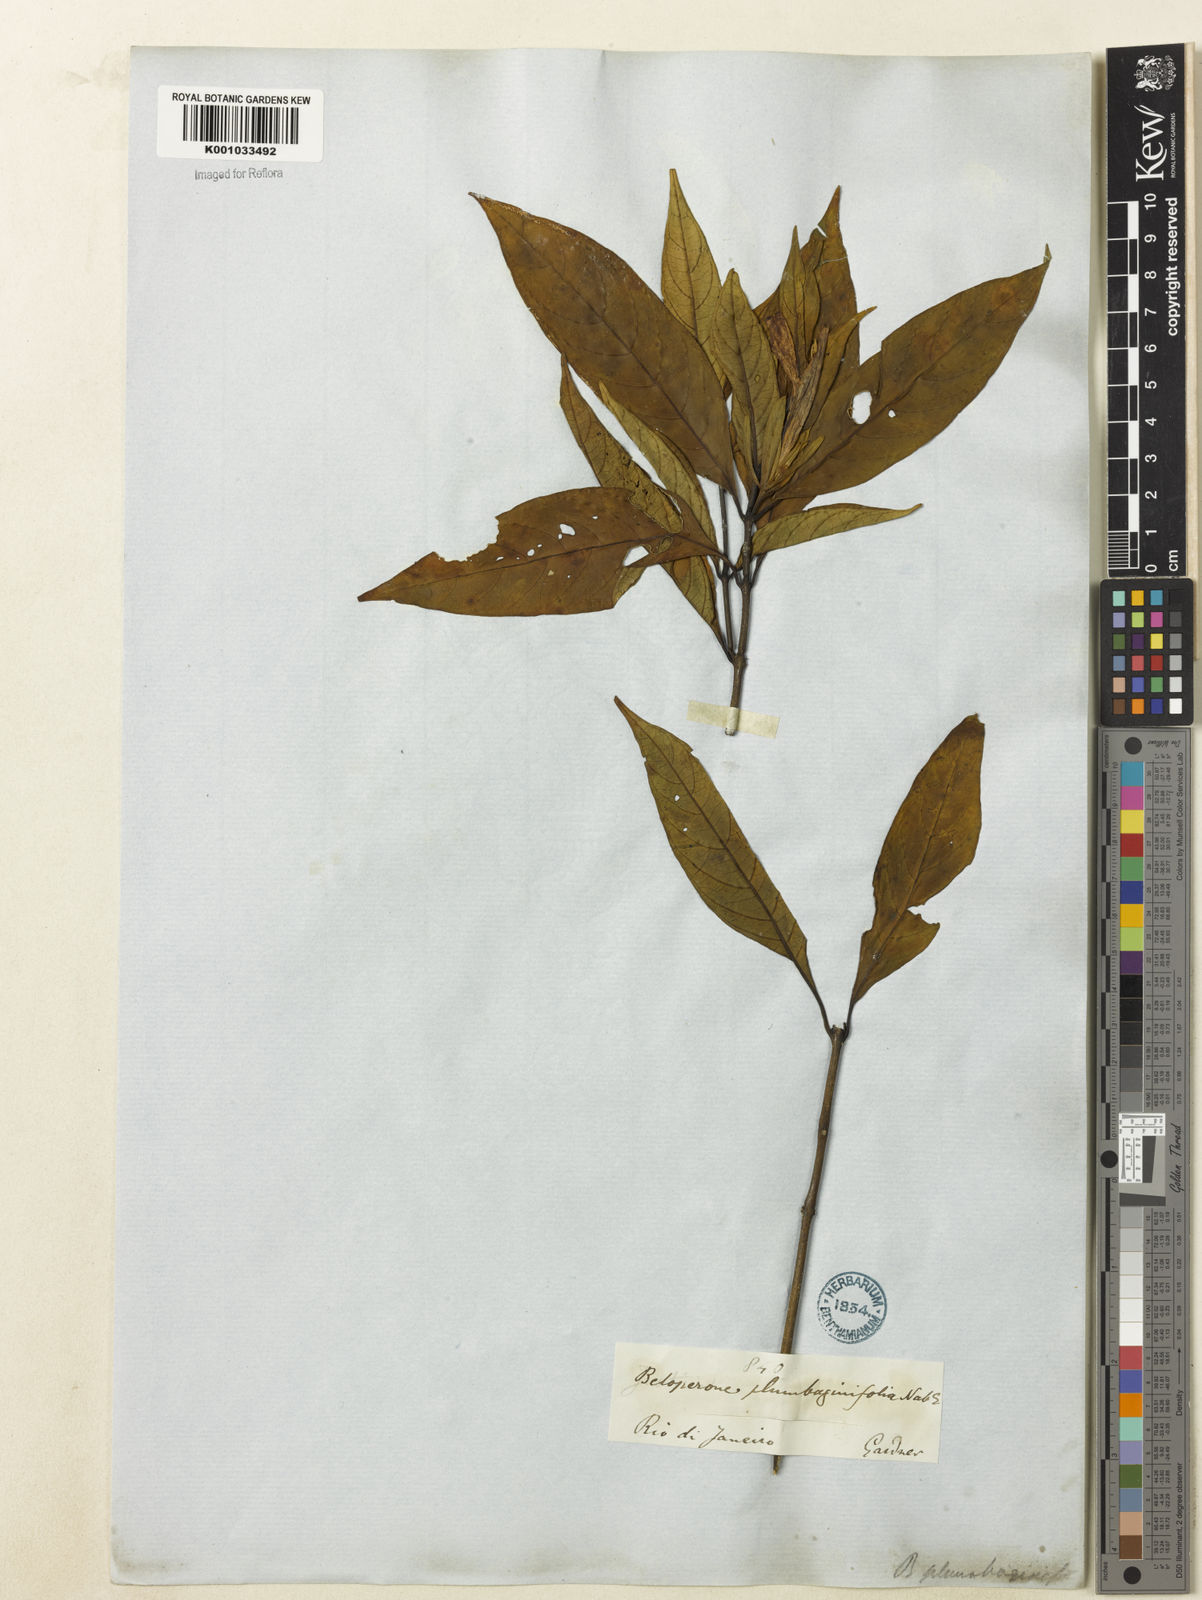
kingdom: Plantae
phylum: Tracheophyta
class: Magnoliopsida
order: Lamiales
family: Acanthaceae
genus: Justicia
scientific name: Justicia plumbaginifolia
